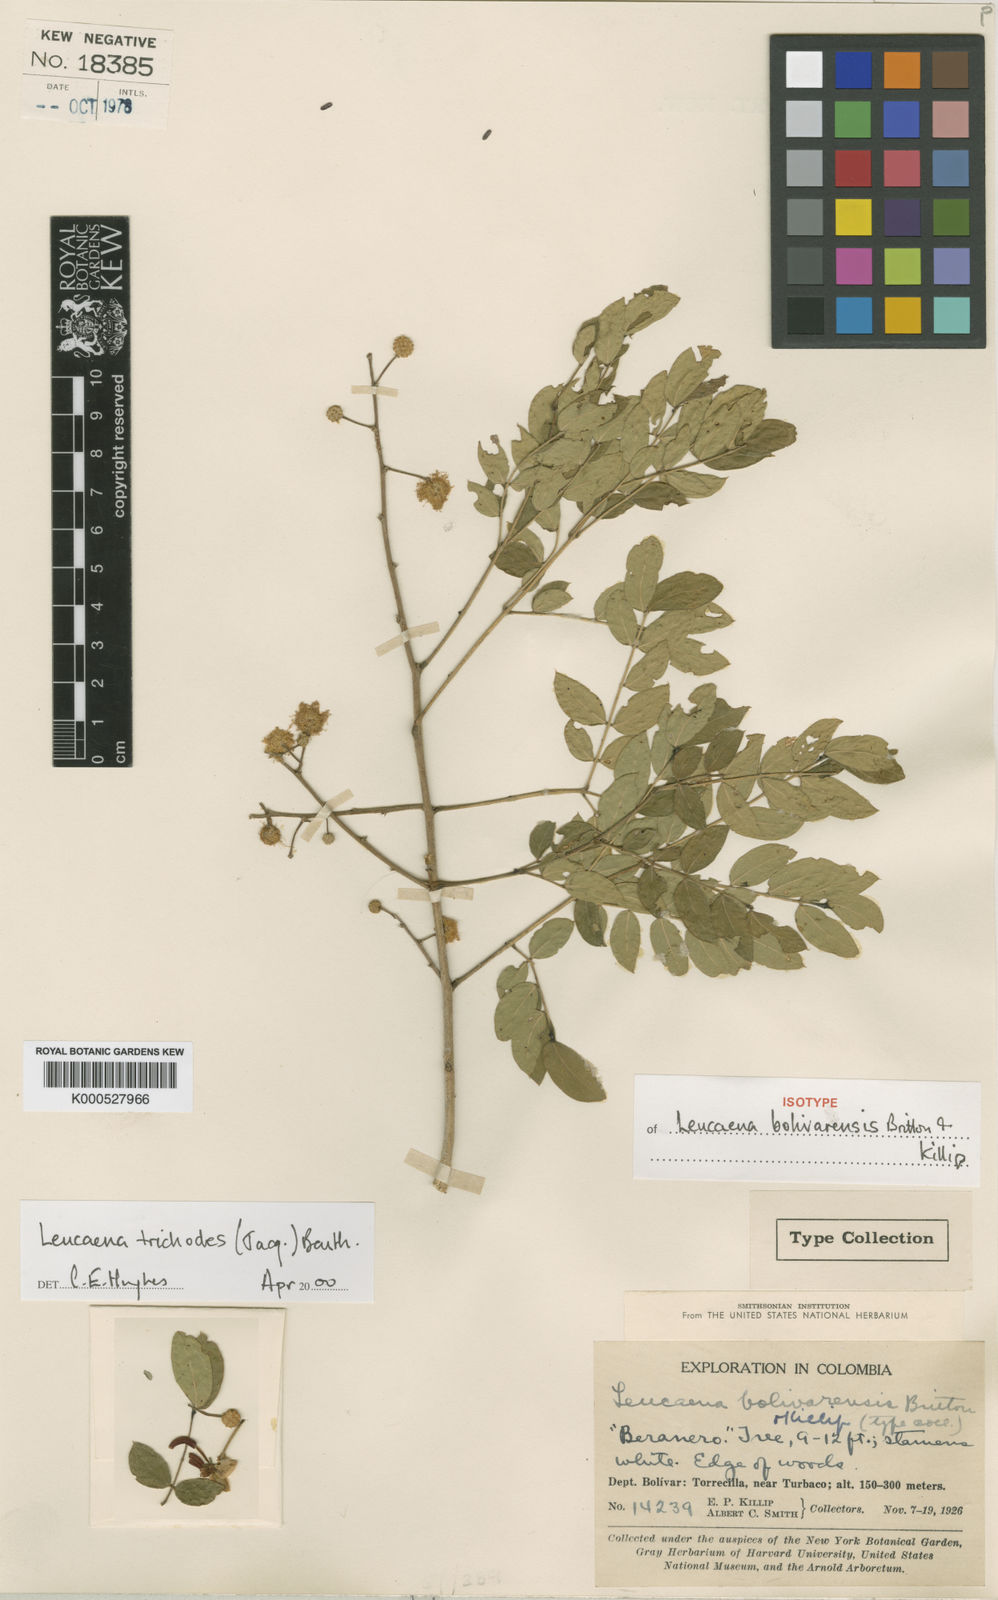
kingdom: Plantae
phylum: Tracheophyta
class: Magnoliopsida
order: Fabales
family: Fabaceae
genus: Leucaena
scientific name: Leucaena trichodes
